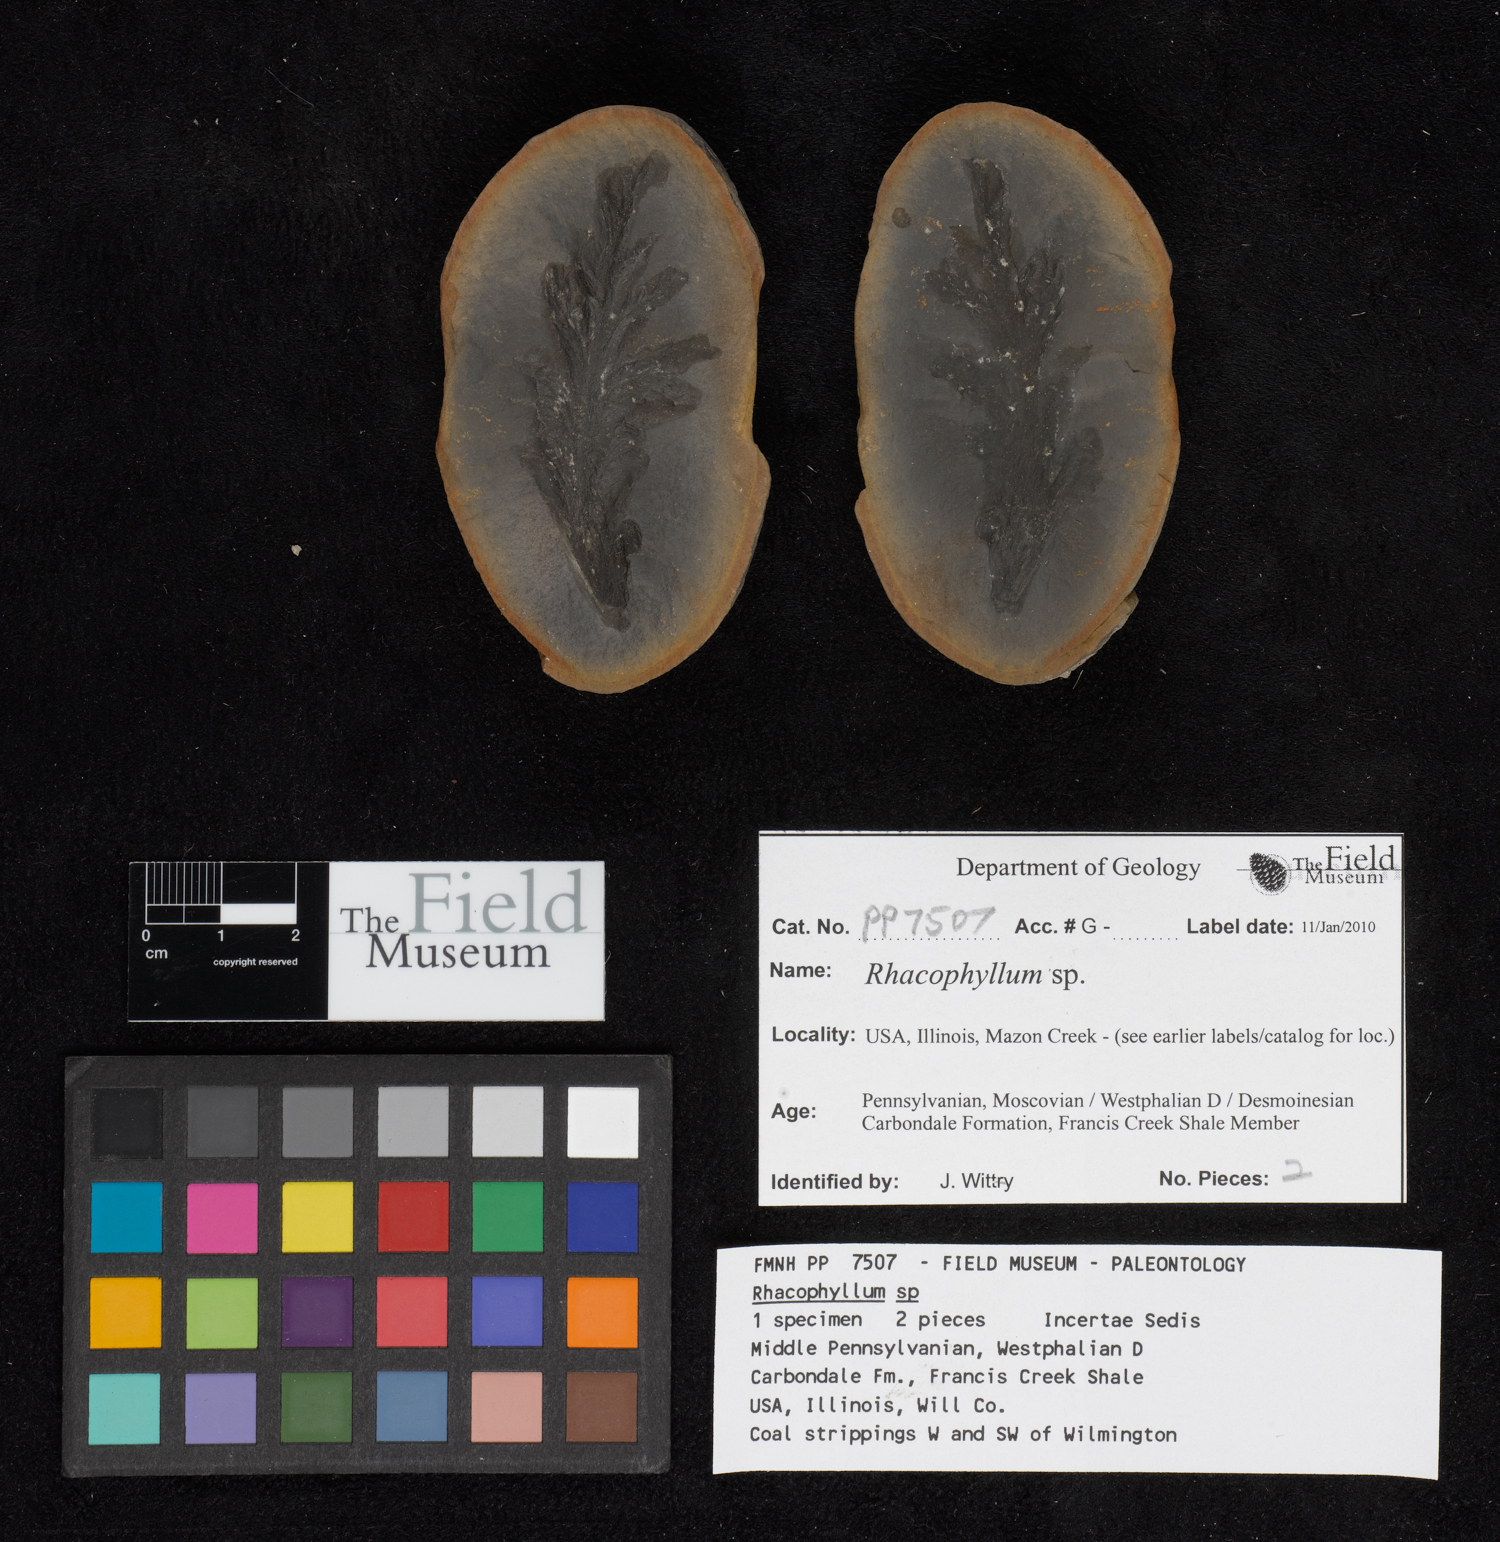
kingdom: Plantae
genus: Rhacophyllum
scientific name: Rhacophyllum
